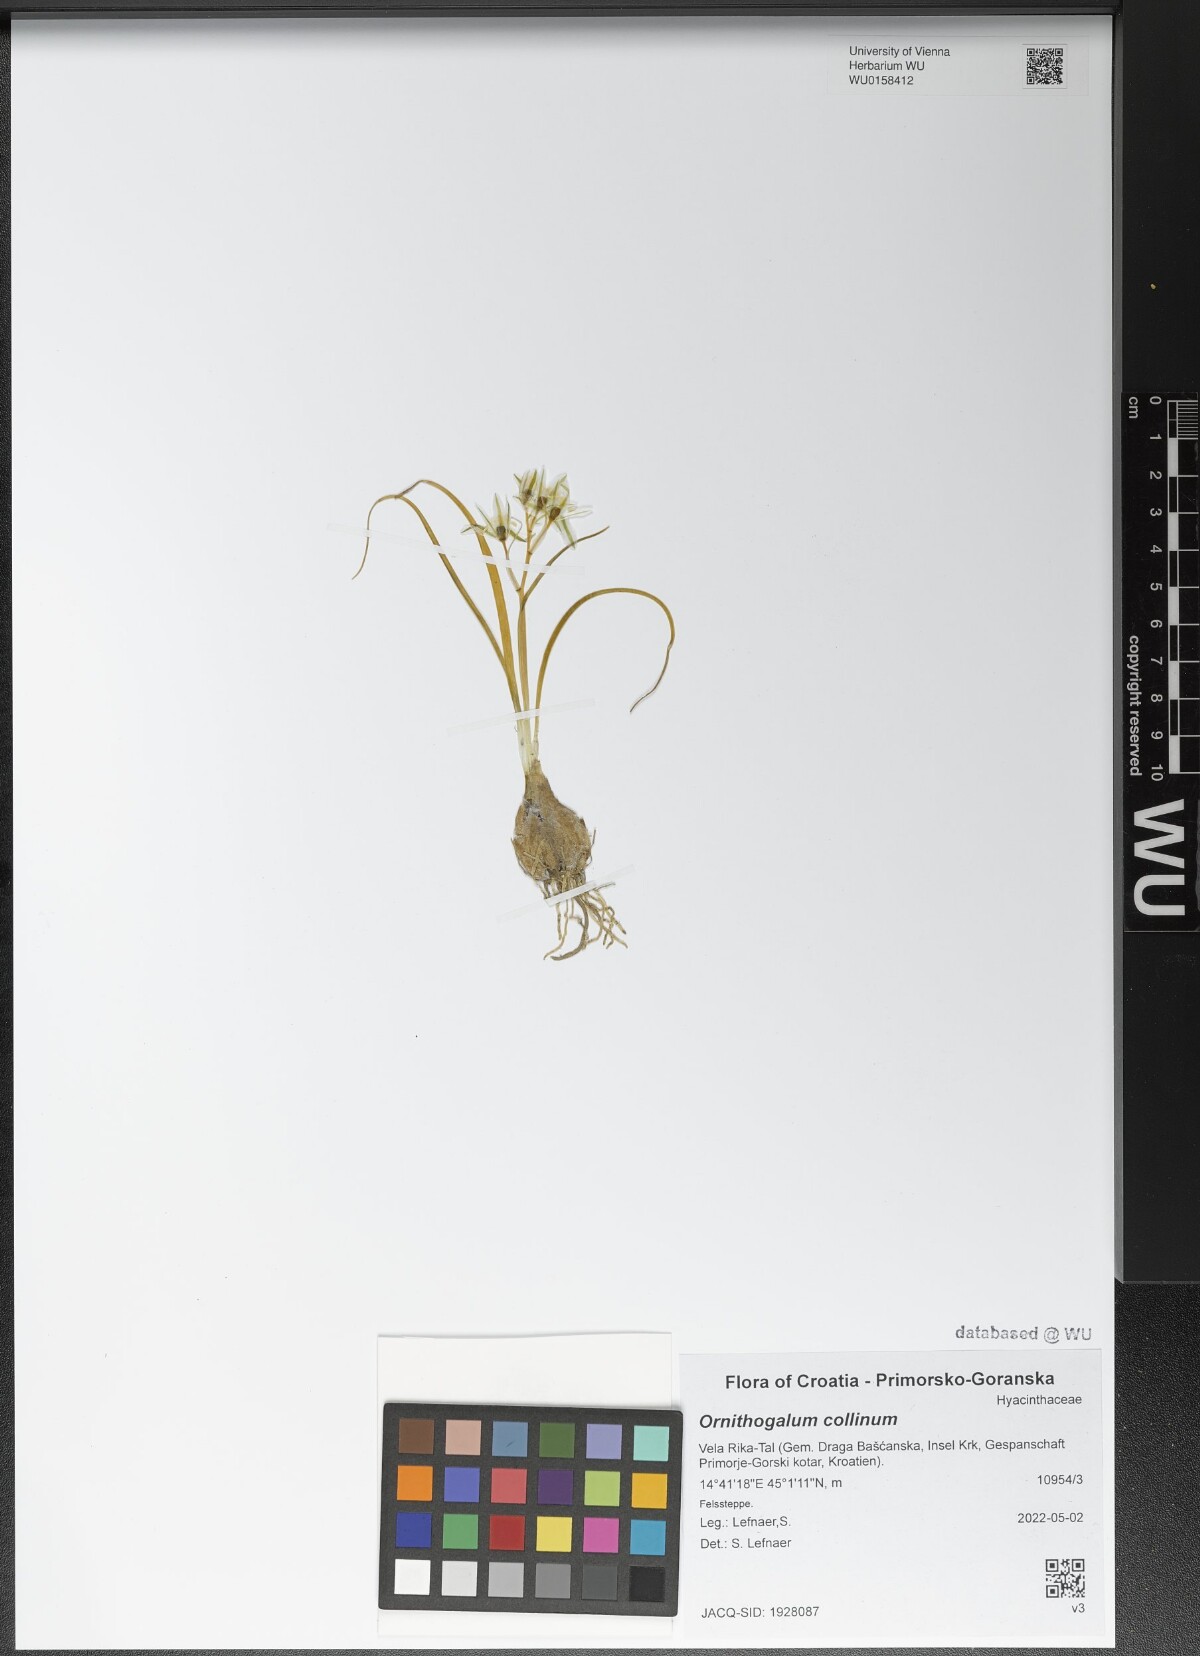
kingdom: Plantae
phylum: Tracheophyta
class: Liliopsida
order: Asparagales
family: Asparagaceae
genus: Ornithogalum
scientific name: Ornithogalum collinum
